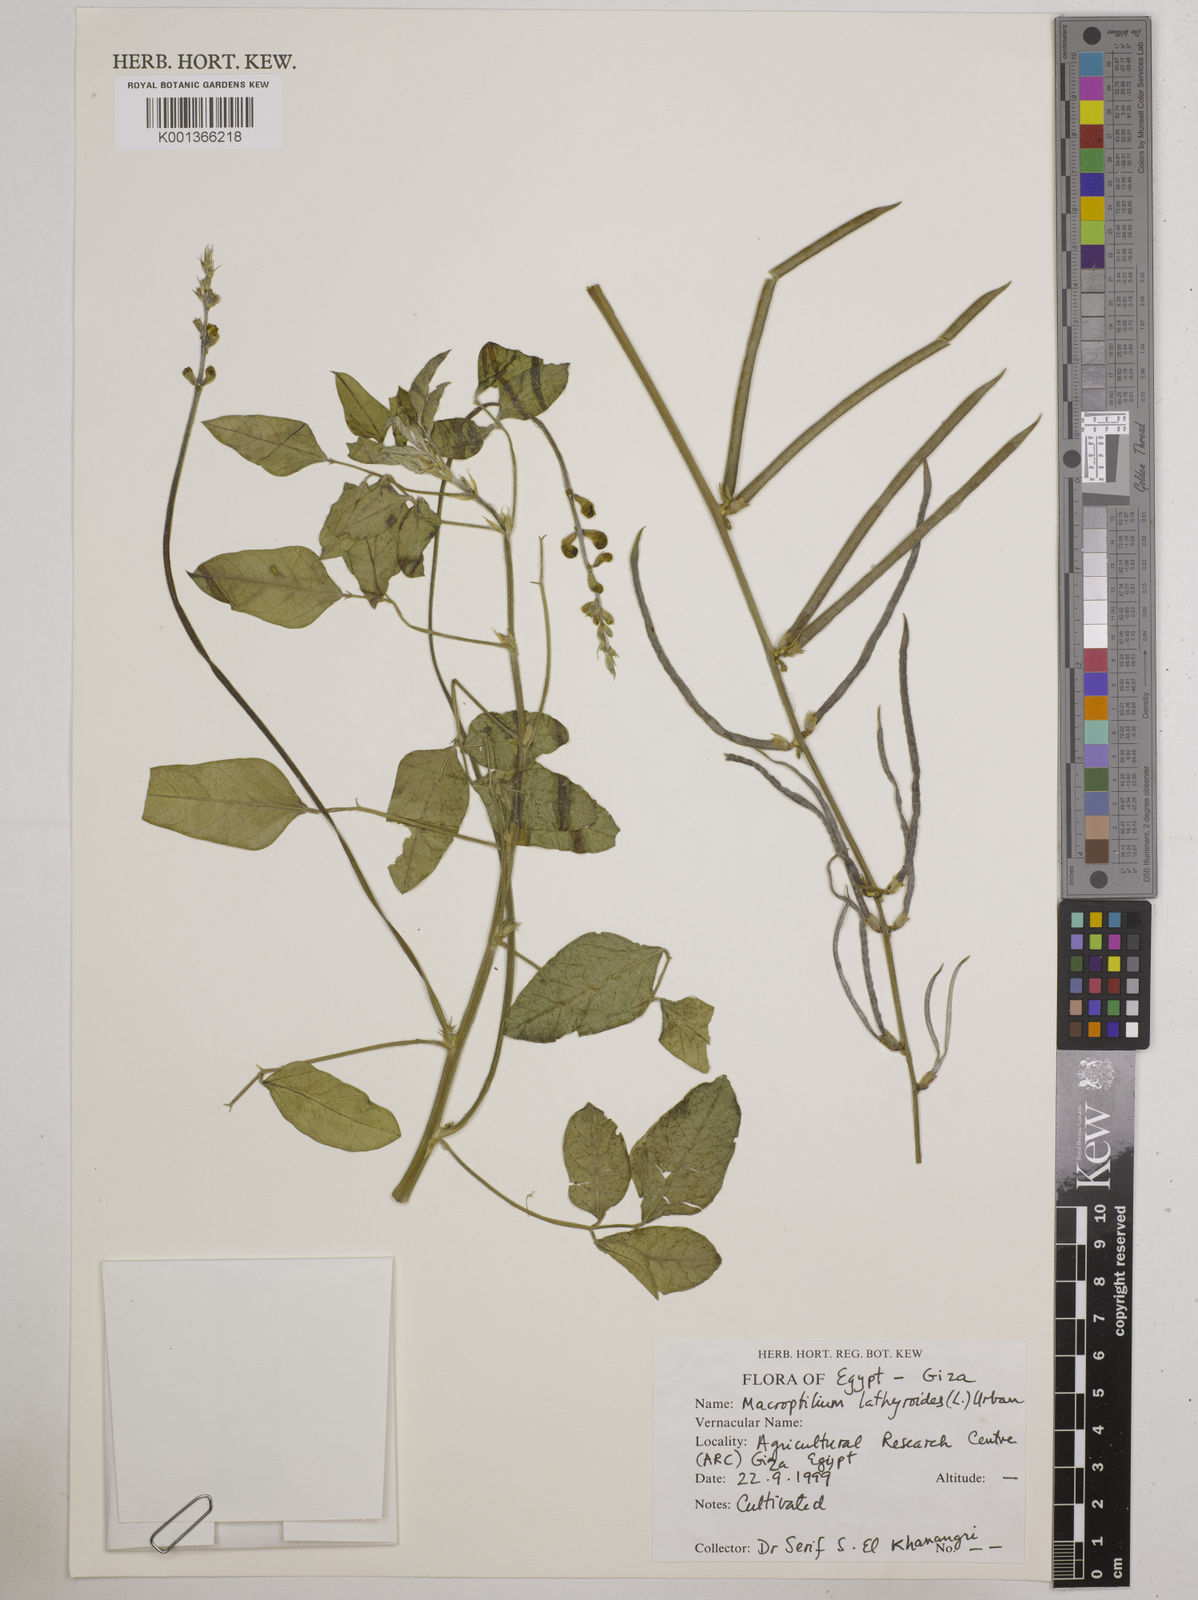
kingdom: Plantae
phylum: Tracheophyta
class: Magnoliopsida
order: Fabales
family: Fabaceae
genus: Macroptilium
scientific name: Macroptilium lathyroides
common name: Wild bushbean
